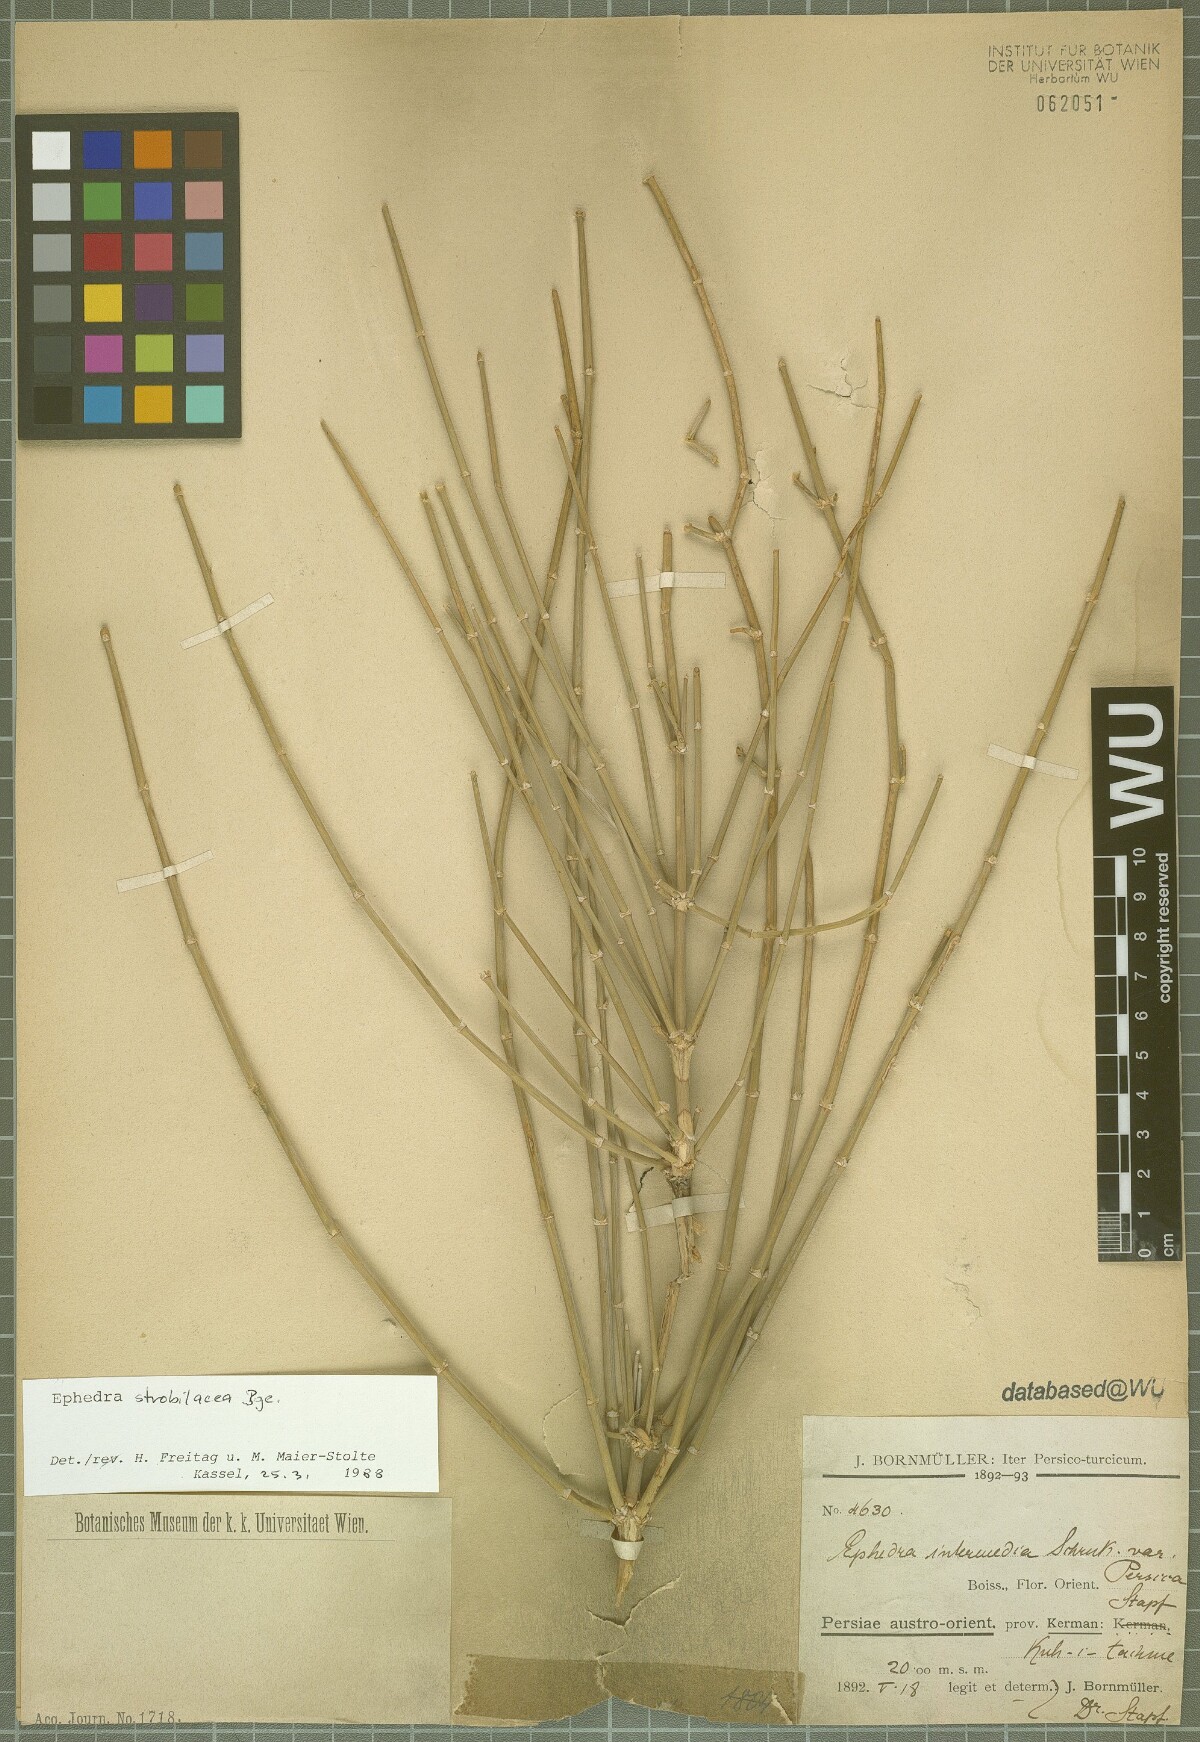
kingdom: Plantae
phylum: Tracheophyta
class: Gnetopsida
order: Ephedrales
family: Ephedraceae
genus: Ephedra
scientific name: Ephedra strobilacea
